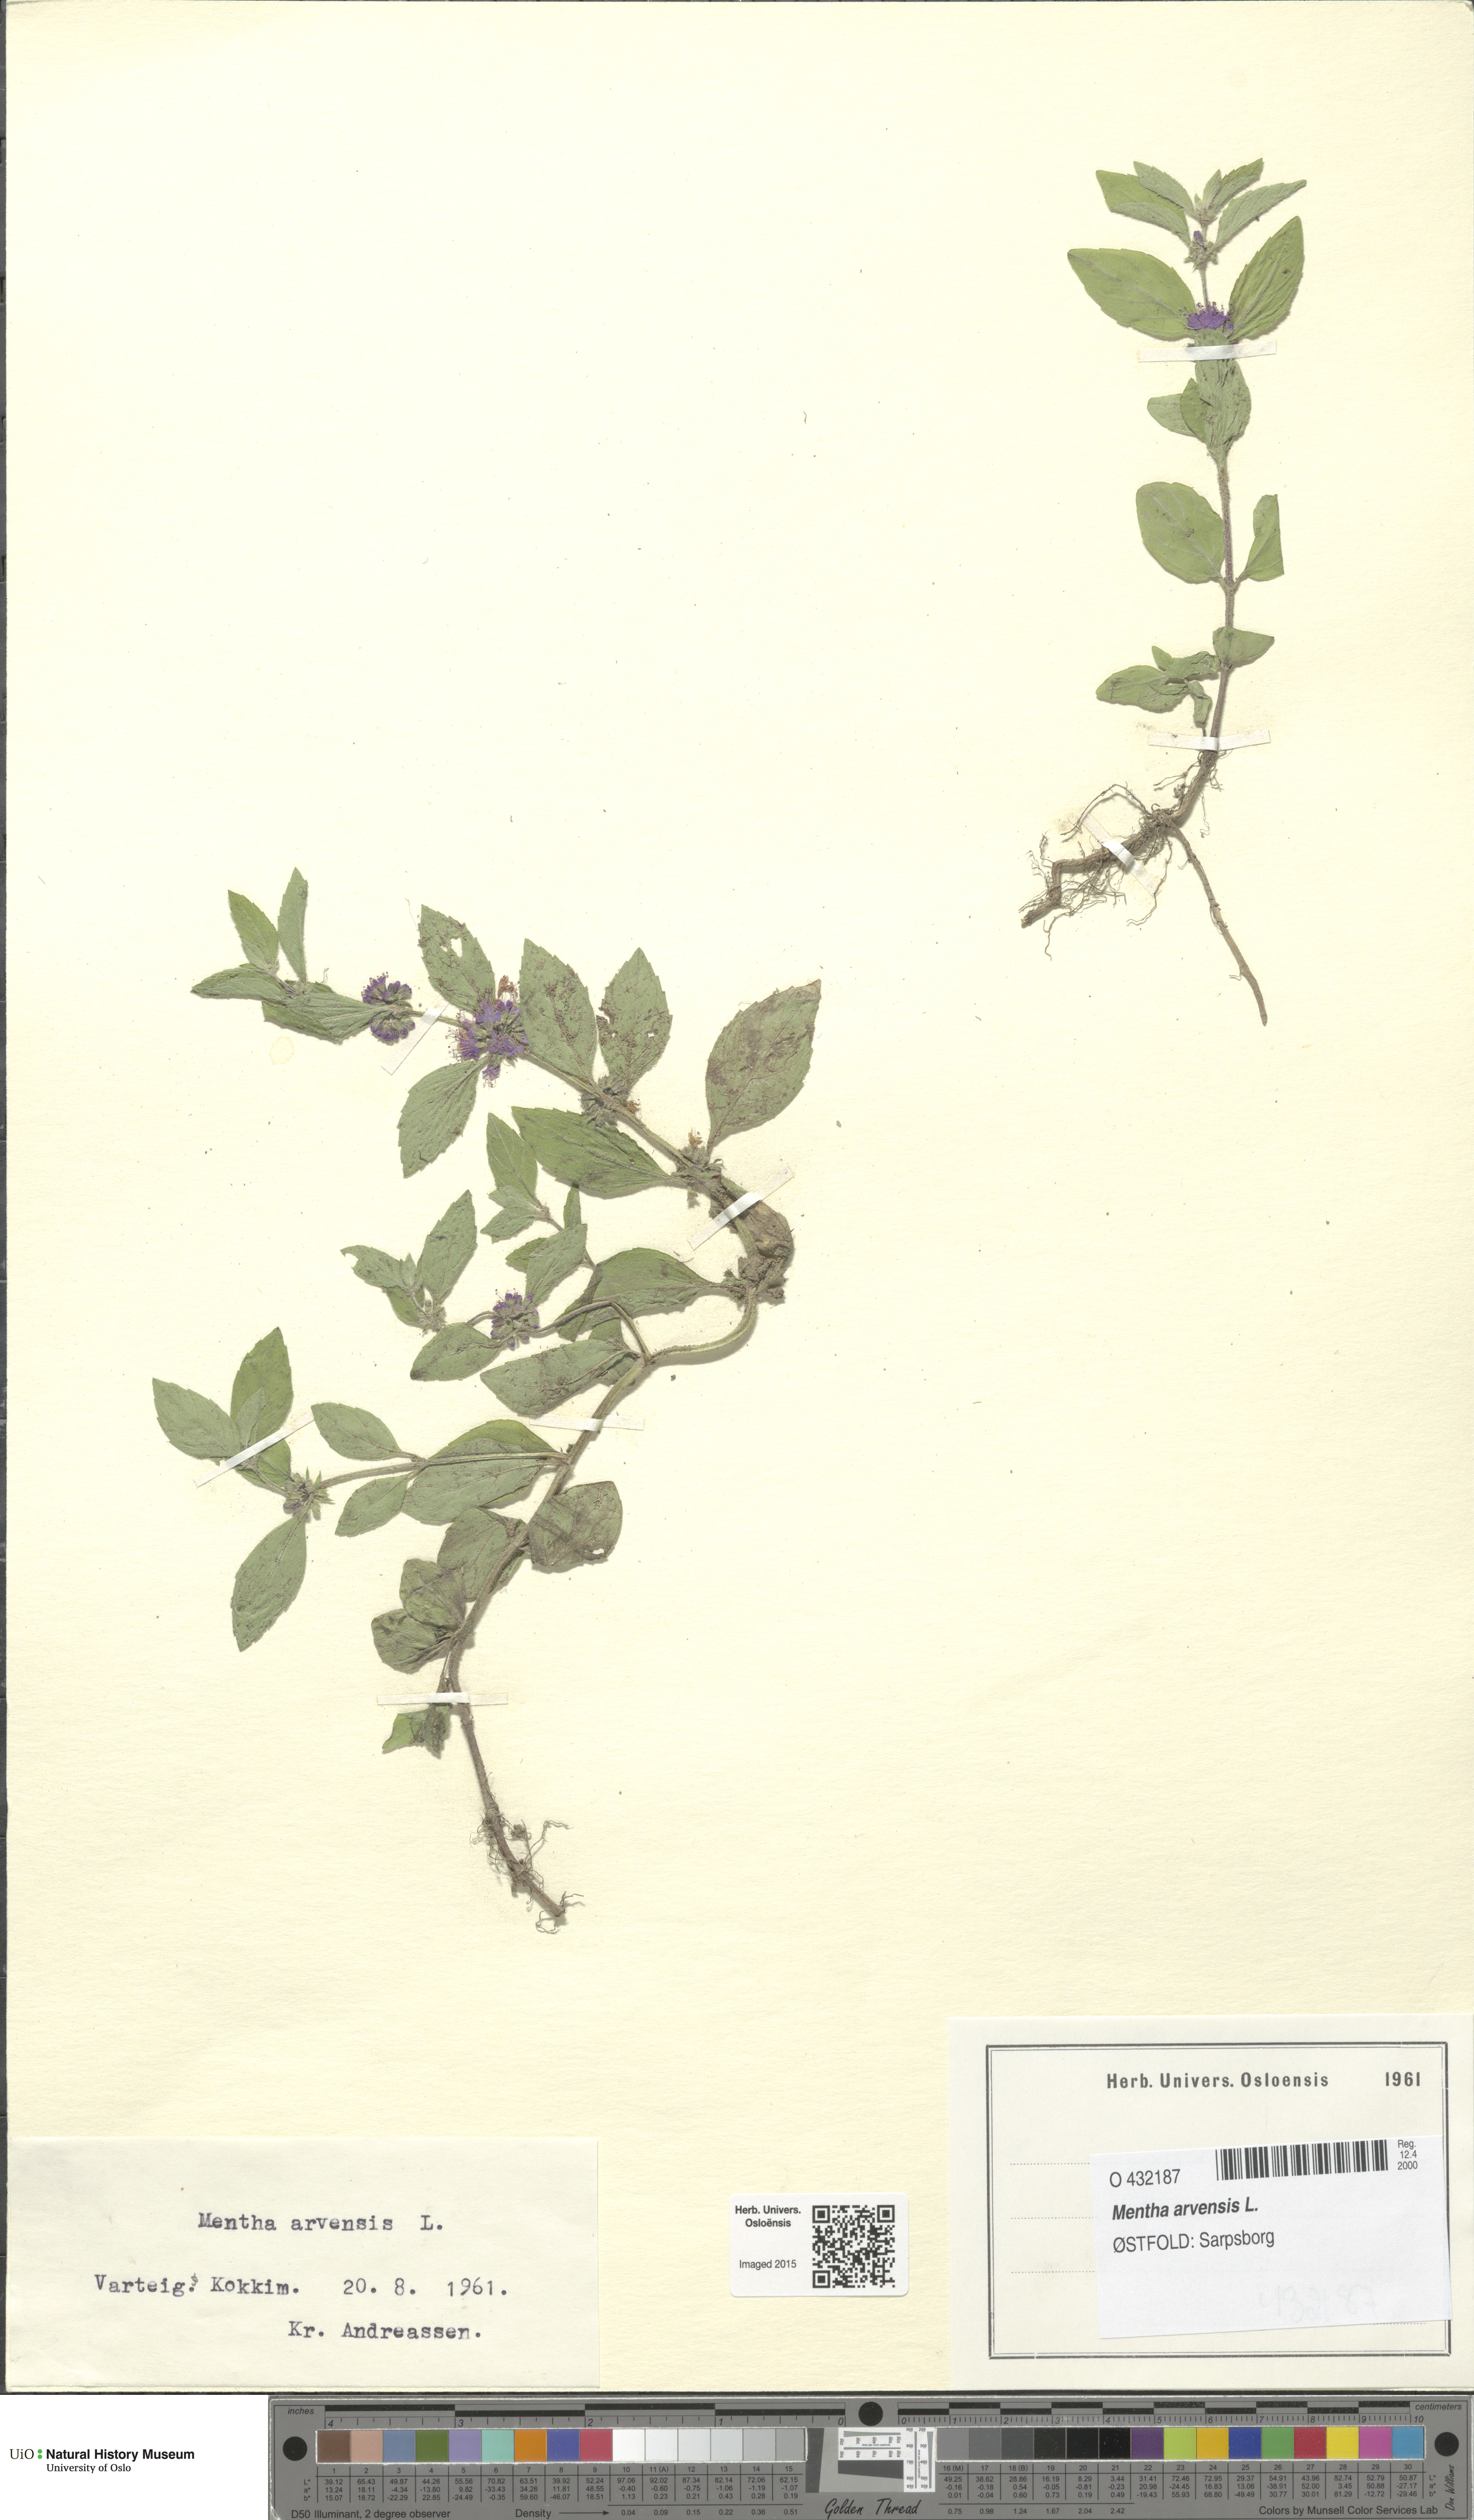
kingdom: Plantae
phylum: Tracheophyta
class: Magnoliopsida
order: Lamiales
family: Lamiaceae
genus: Mentha
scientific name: Mentha arvensis
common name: Corn mint
